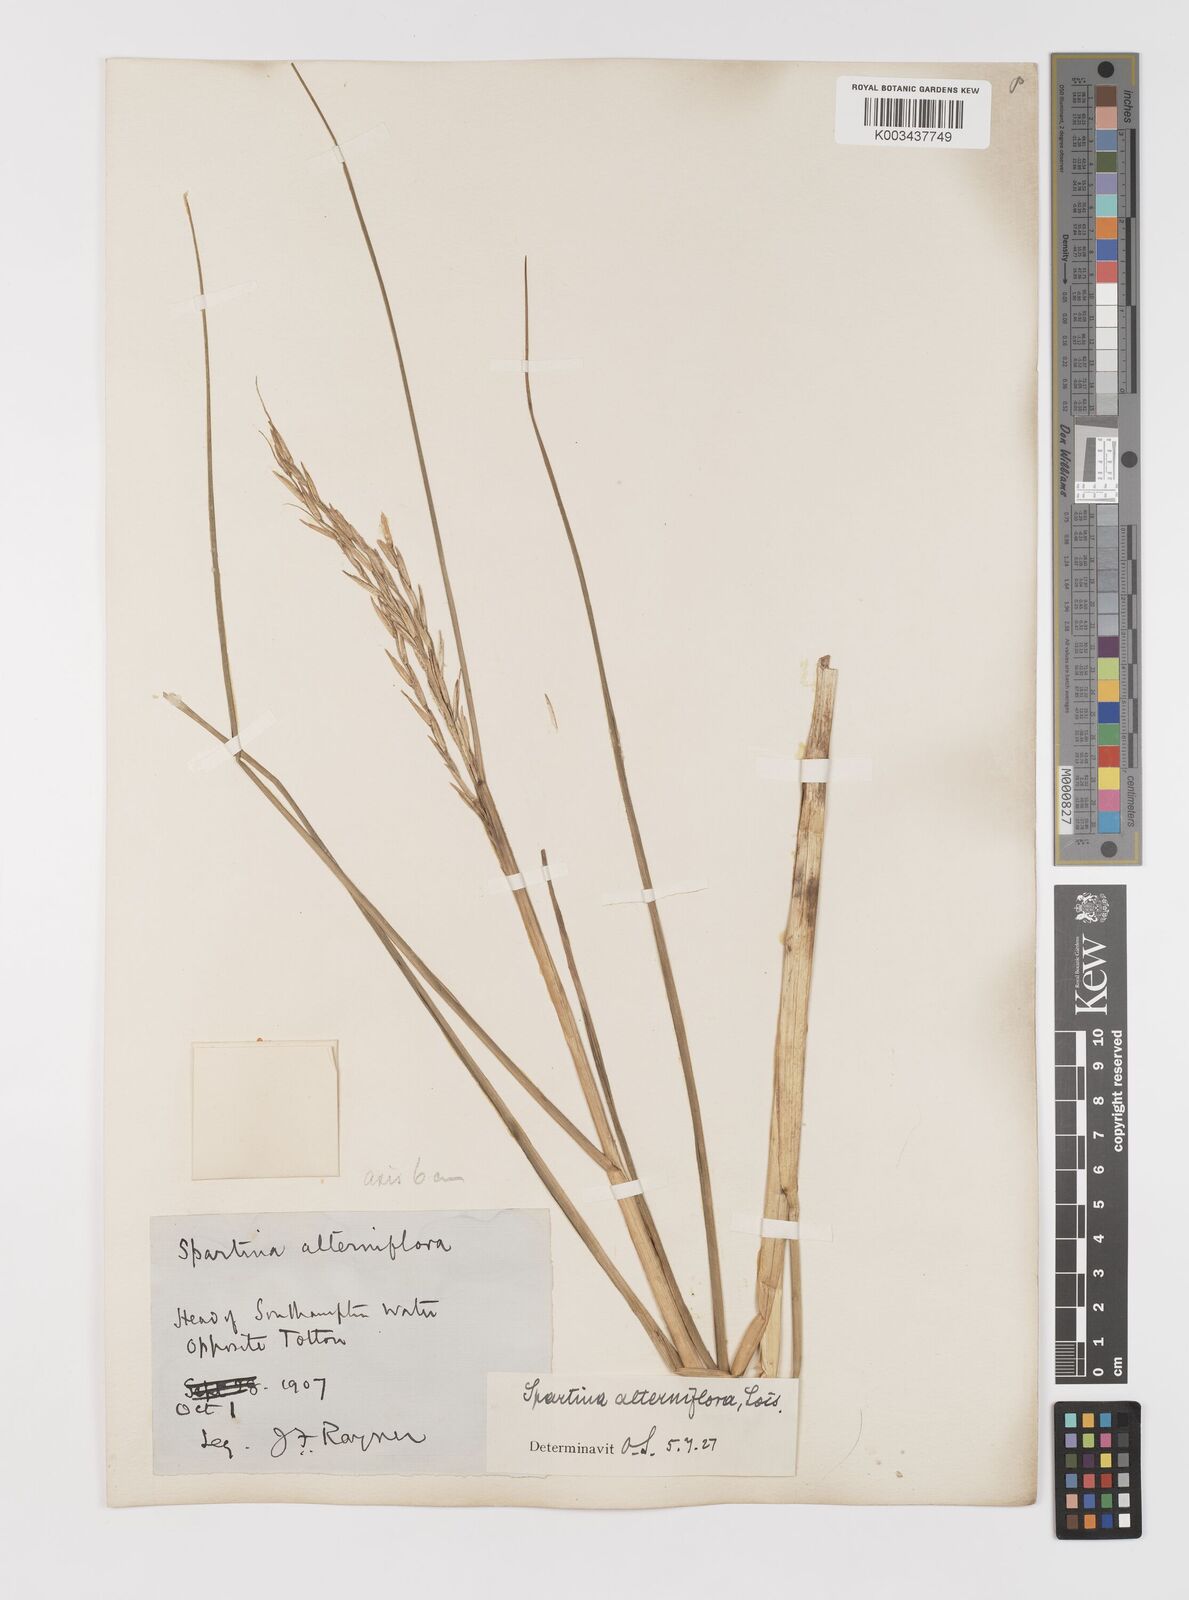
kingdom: Plantae
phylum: Tracheophyta
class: Liliopsida
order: Poales
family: Poaceae
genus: Sporobolus
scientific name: Sporobolus alterniflorus
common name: Atlantic cordgrass
